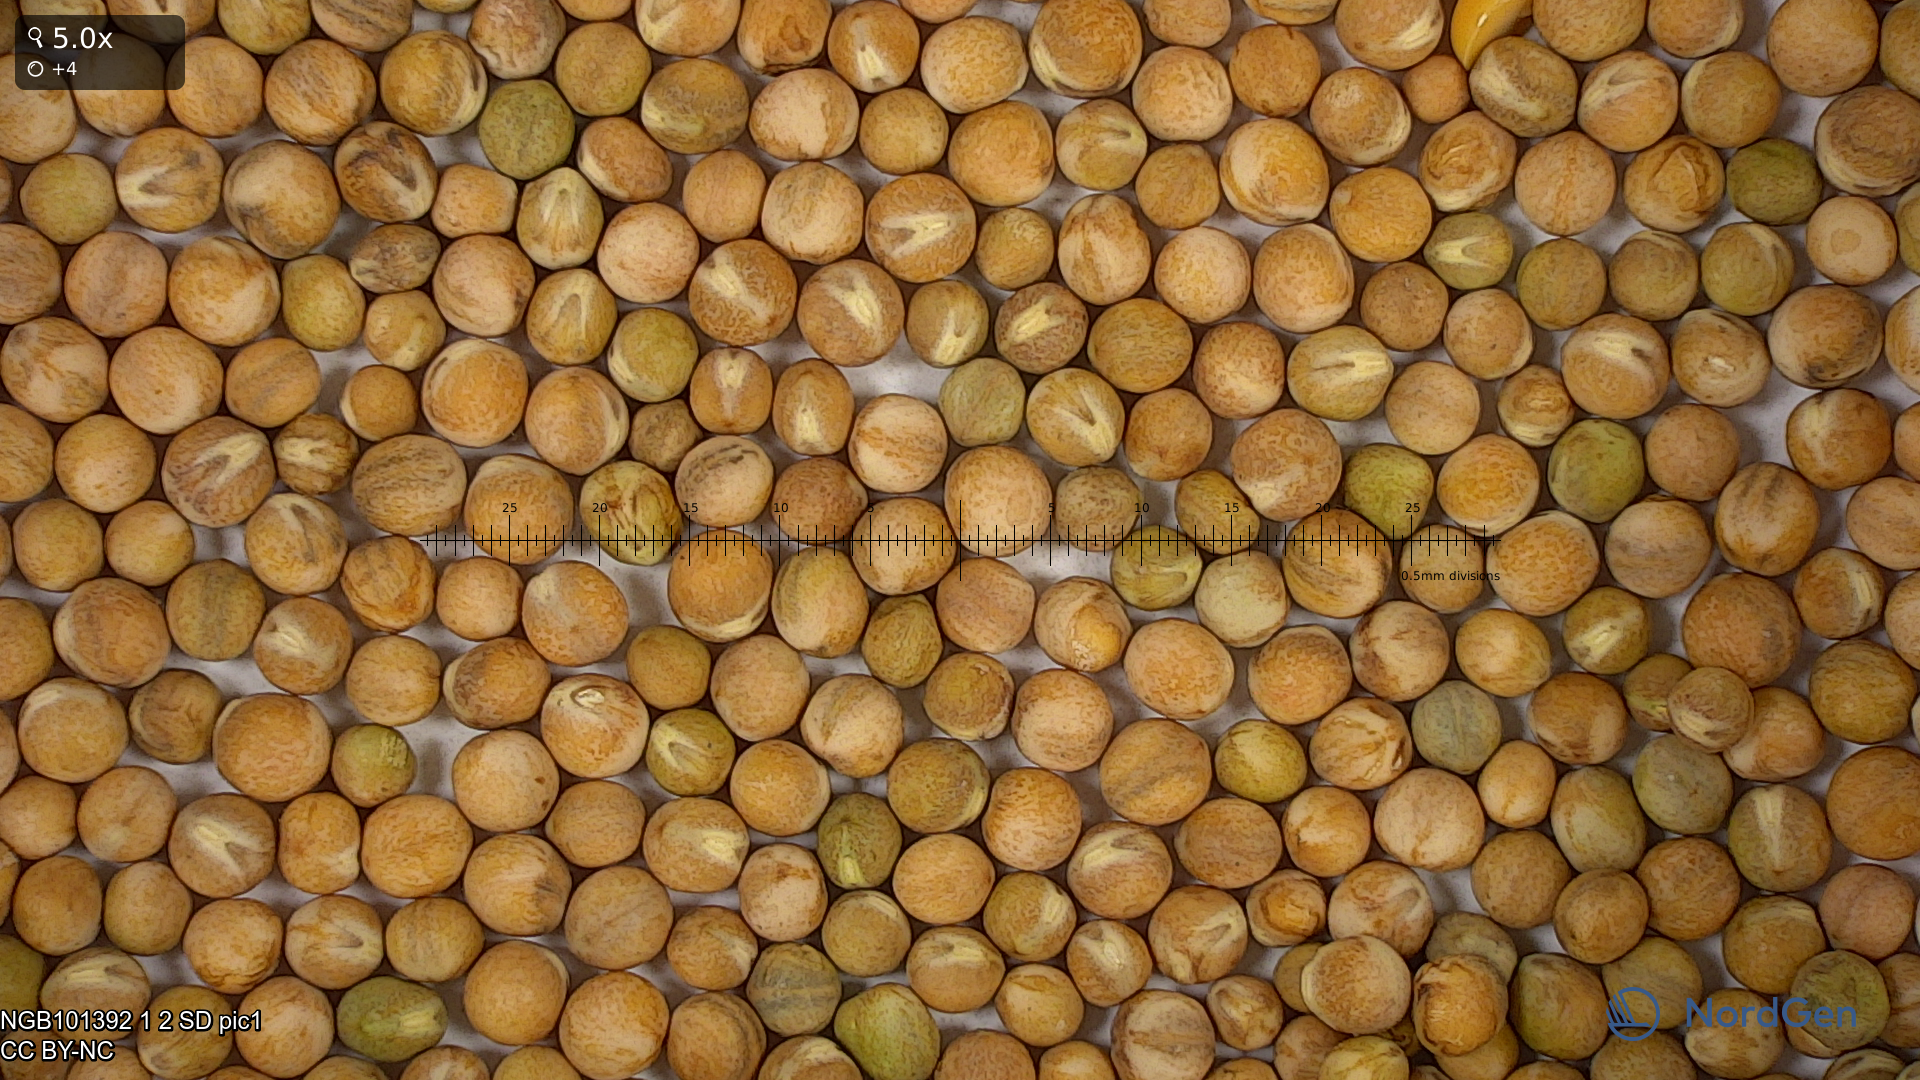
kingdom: Plantae
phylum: Tracheophyta
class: Magnoliopsida
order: Fabales
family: Fabaceae
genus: Lathyrus
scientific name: Lathyrus oleraceus
